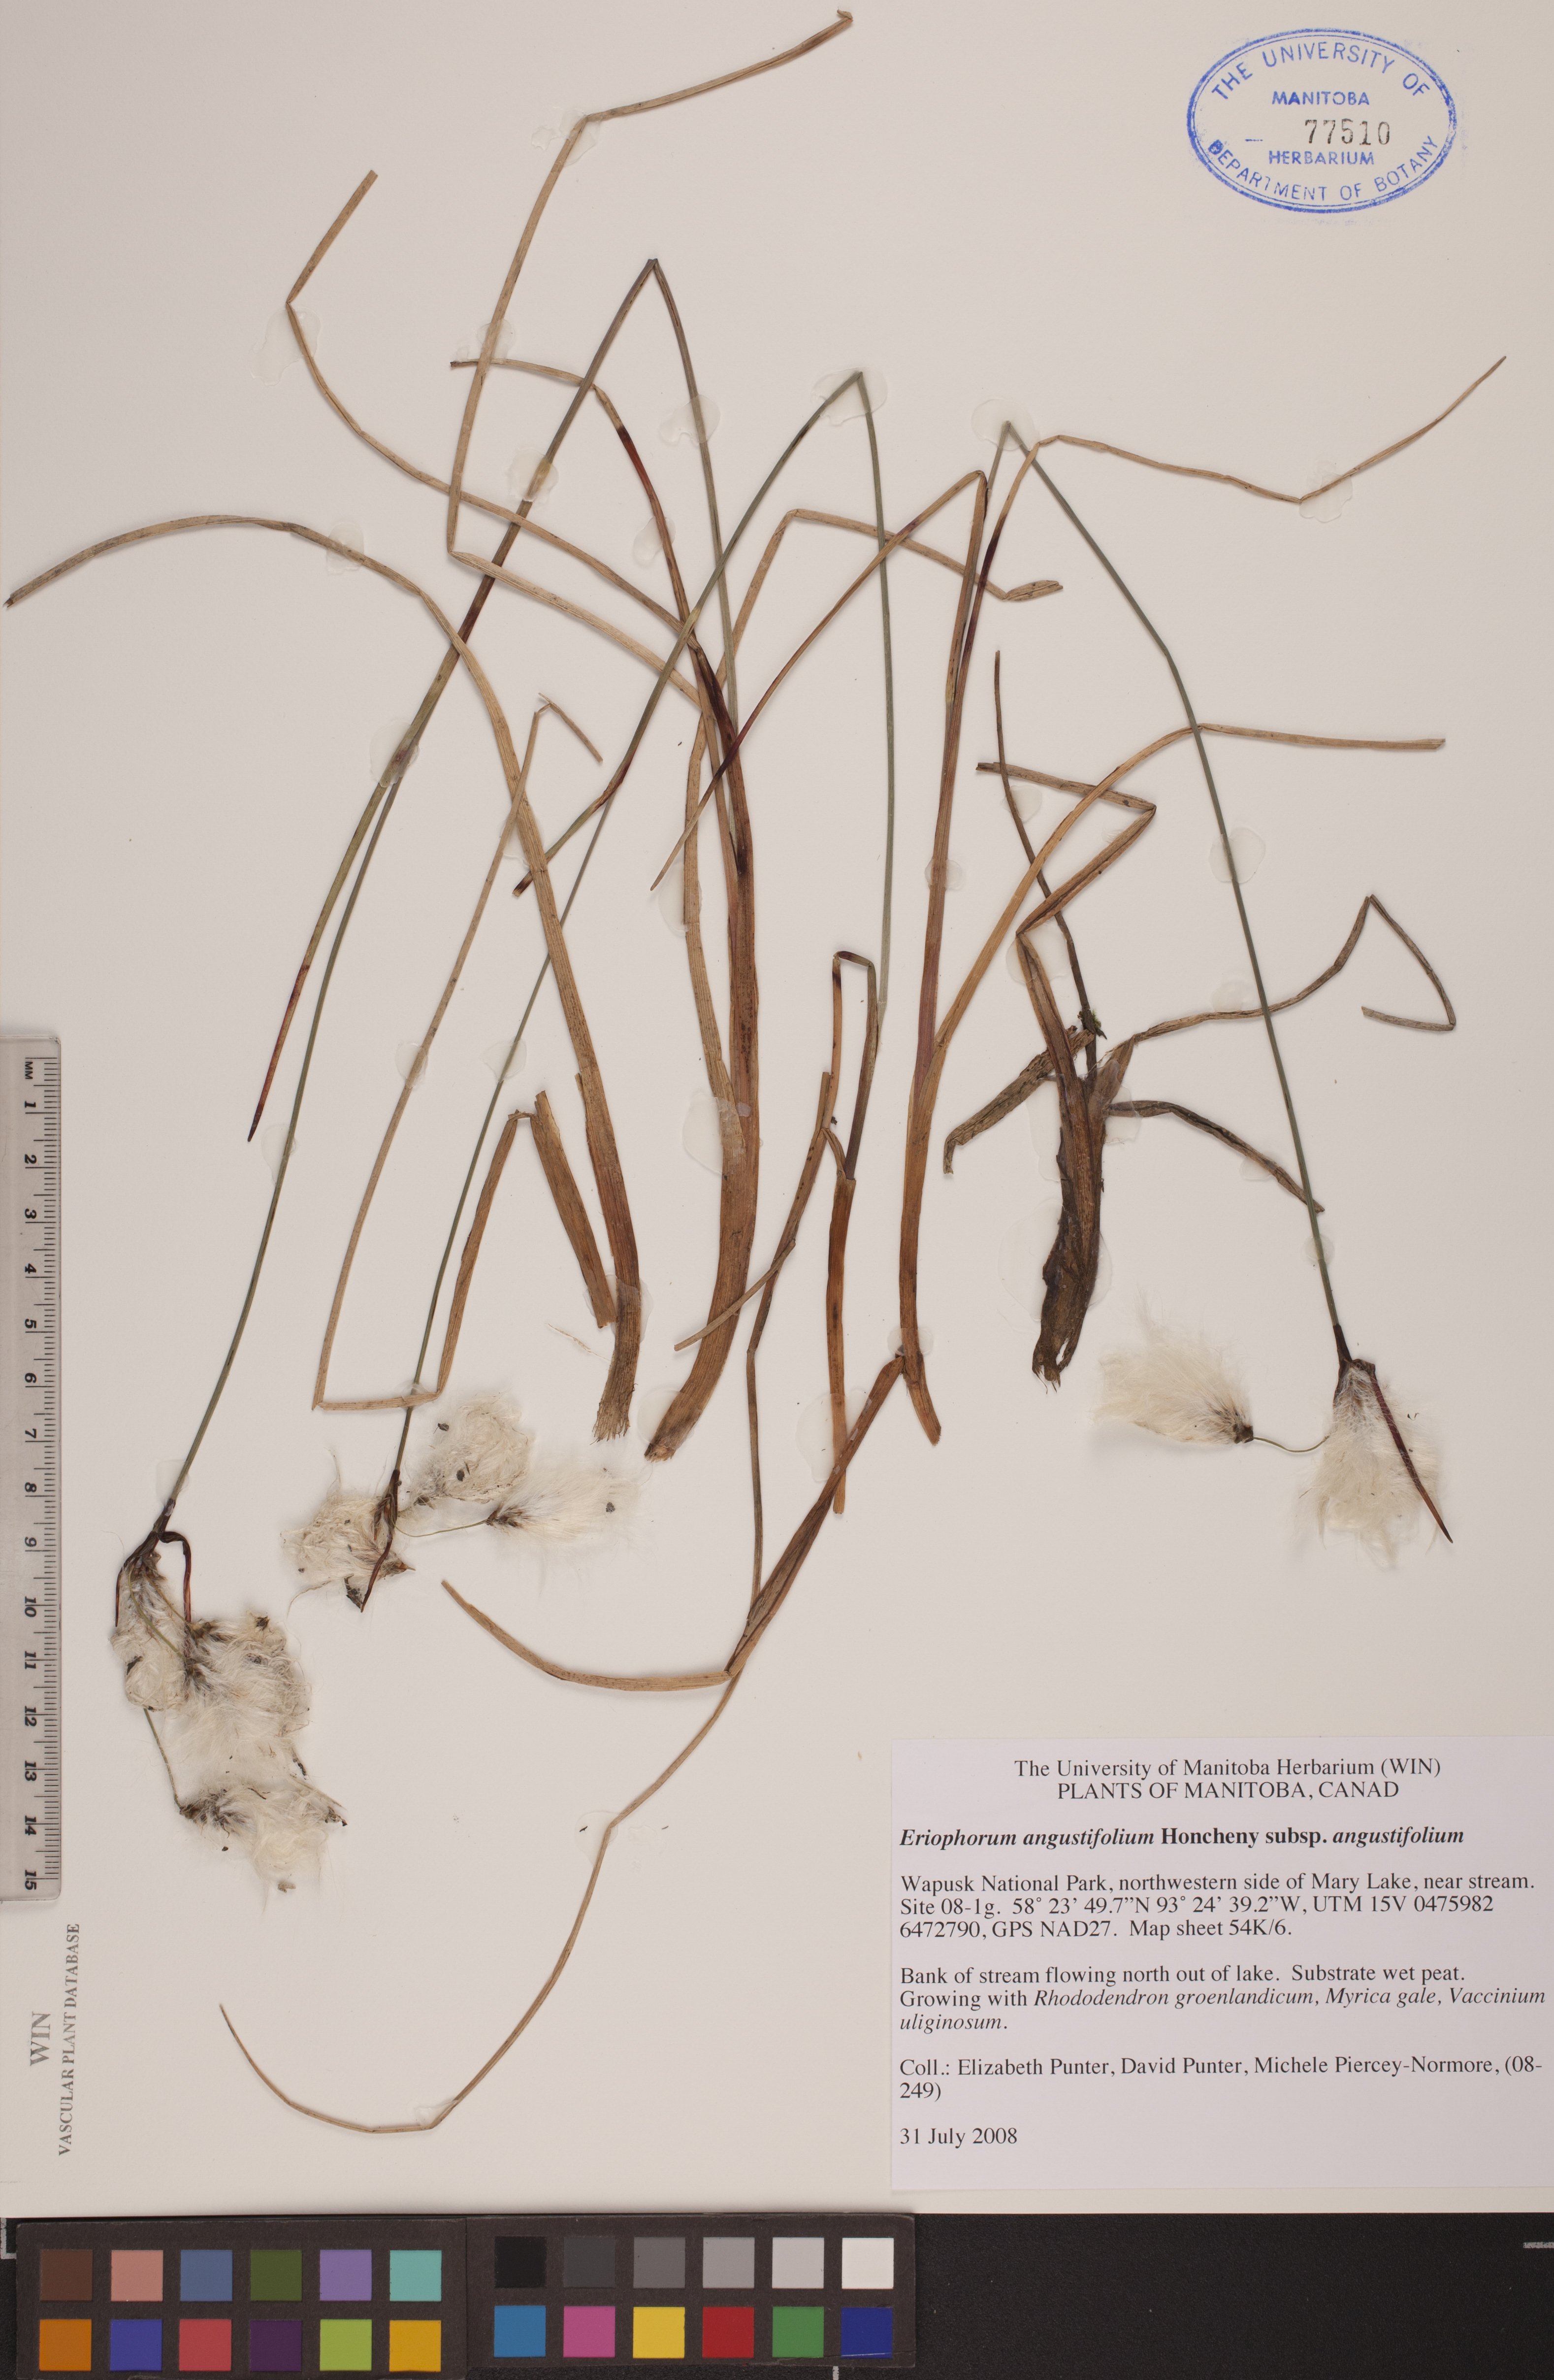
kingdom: Plantae
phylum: Tracheophyta
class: Liliopsida
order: Poales
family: Cyperaceae
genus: Eriophorum
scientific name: Eriophorum angustifolium
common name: Common cottongrass
